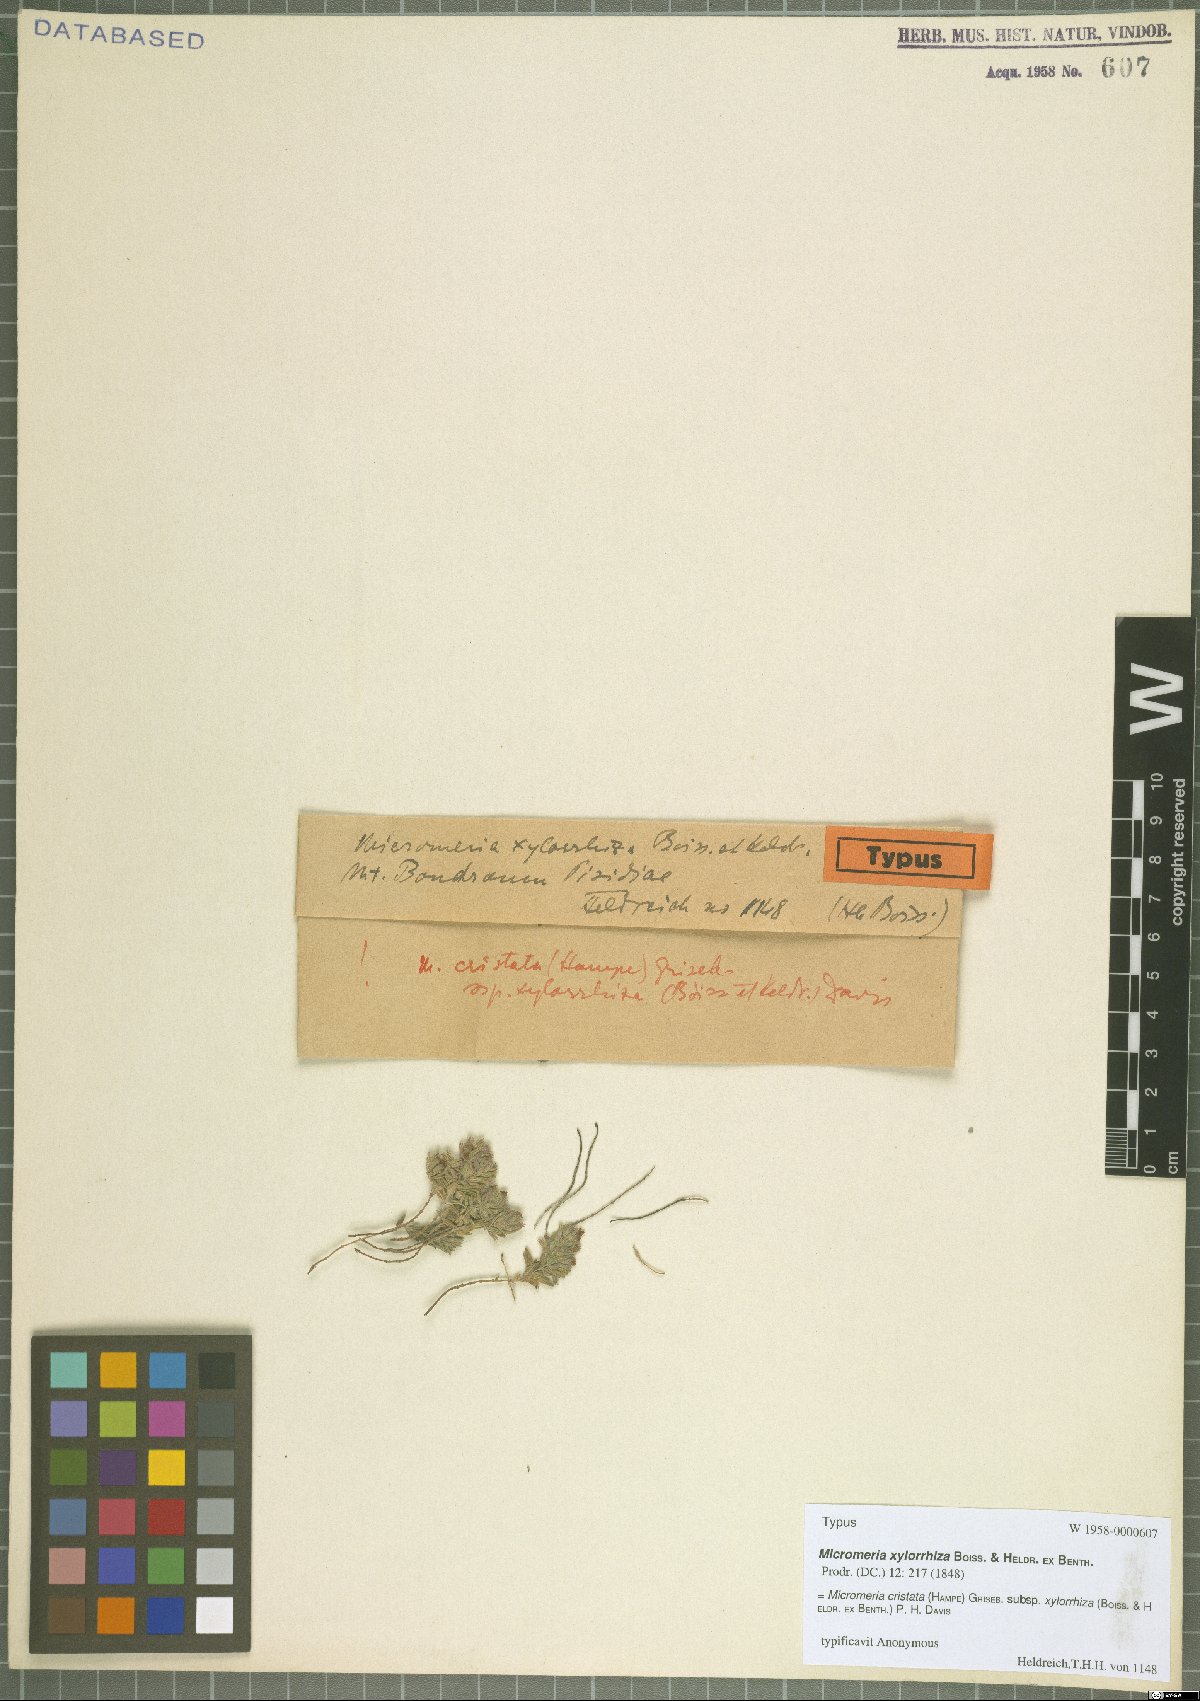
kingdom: Plantae
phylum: Tracheophyta
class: Magnoliopsida
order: Lamiales
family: Lamiaceae
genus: Micromeria
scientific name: Micromeria cristata
